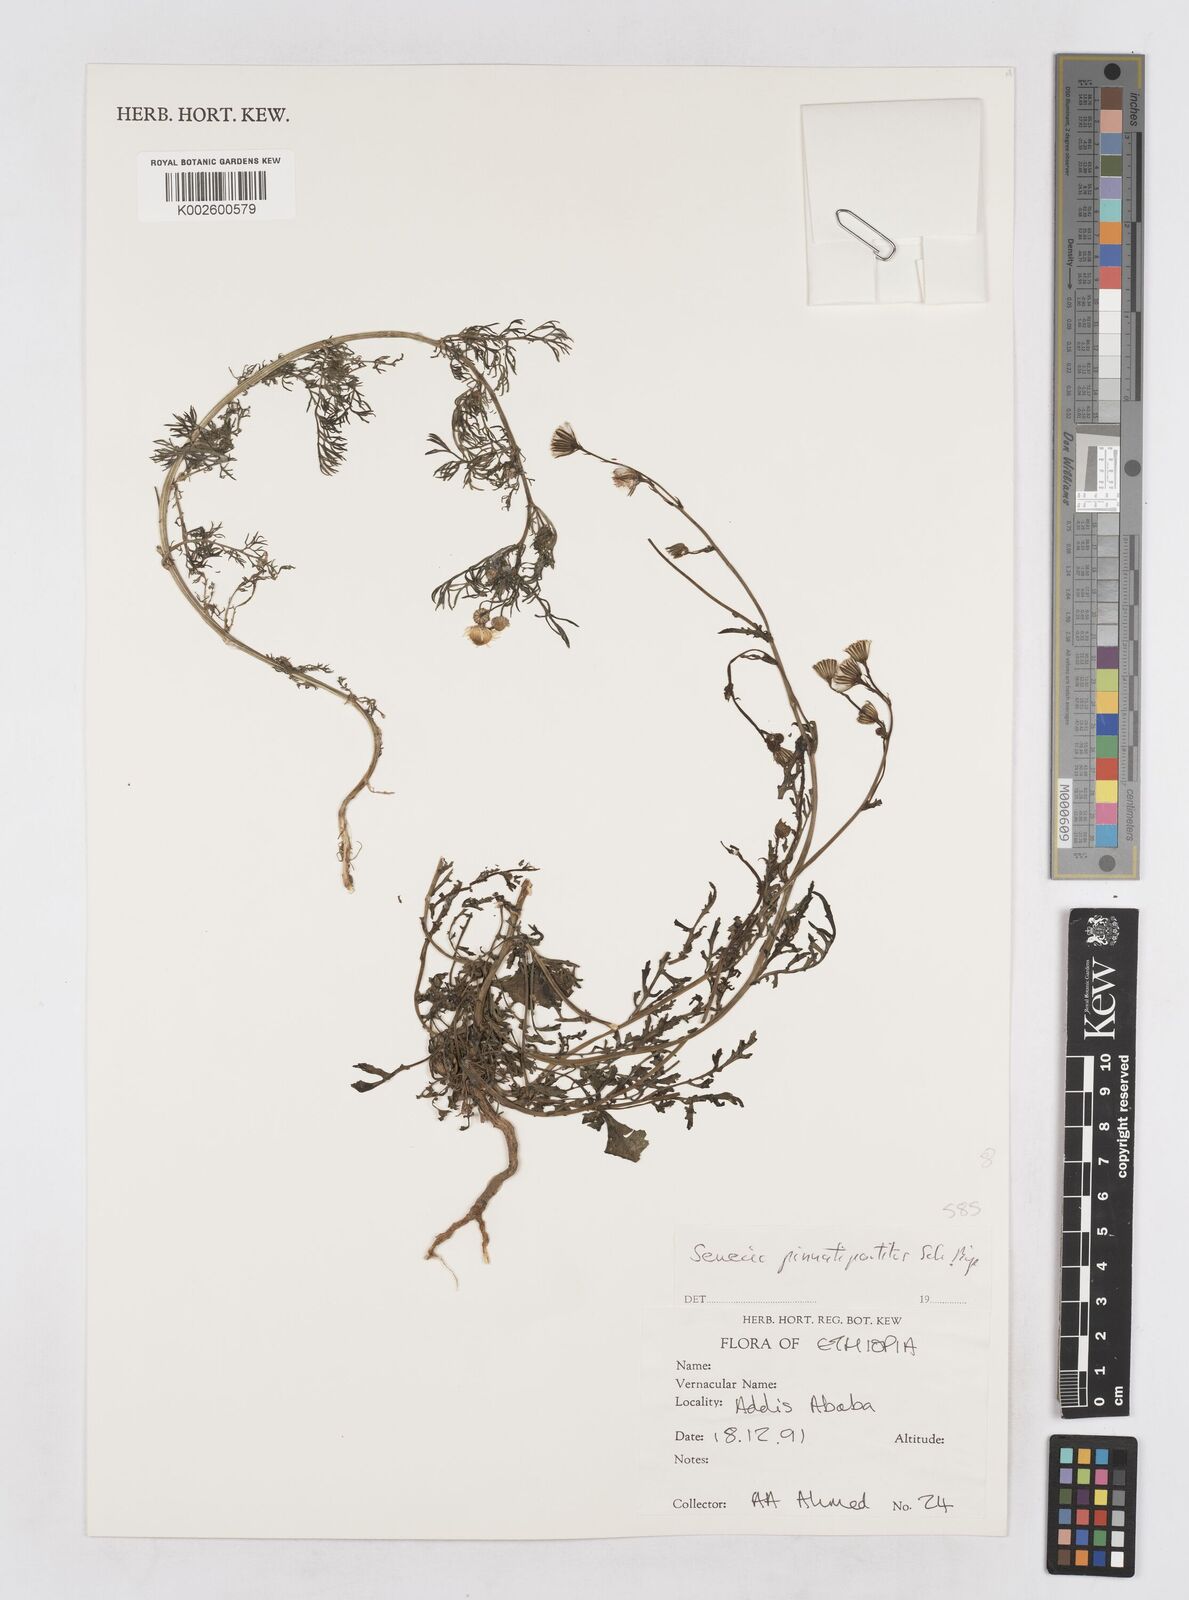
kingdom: Plantae
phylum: Tracheophyta
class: Magnoliopsida
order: Asterales
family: Asteraceae
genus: Senecio
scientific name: Senecio pinnatipartitus
